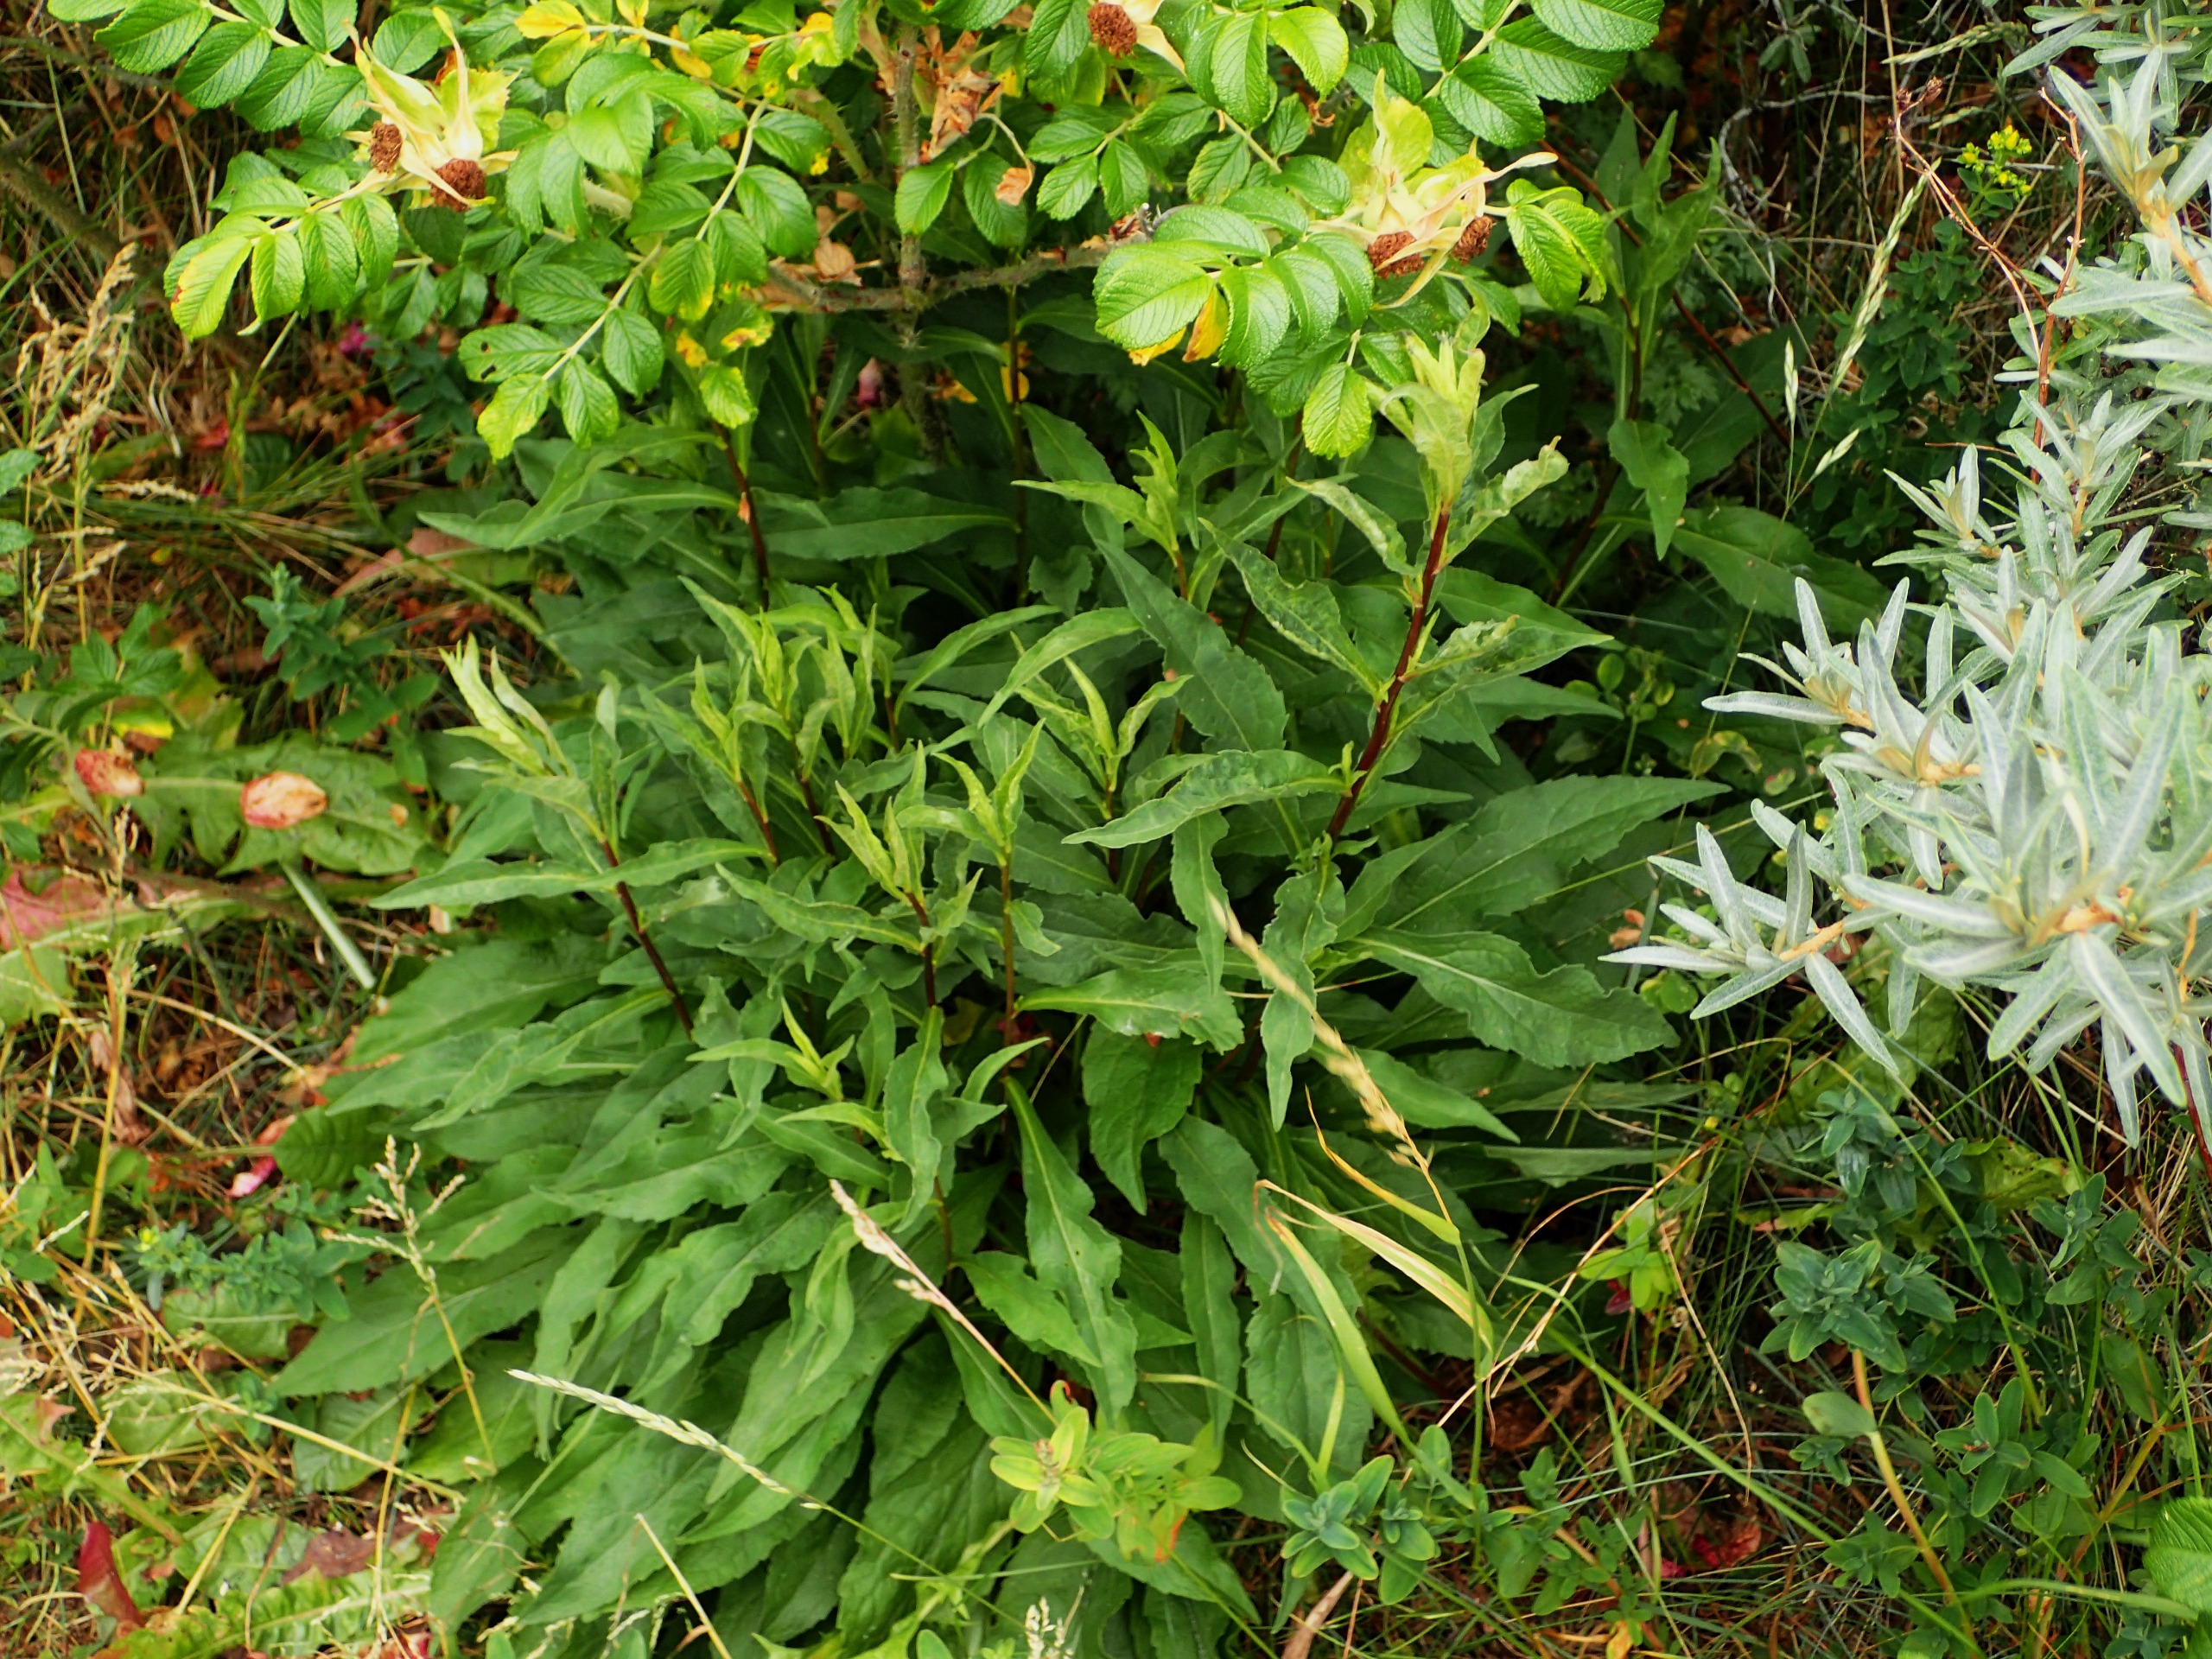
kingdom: Plantae
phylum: Tracheophyta
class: Magnoliopsida
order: Asterales
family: Asteraceae
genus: Solidago
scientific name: Solidago virgaurea
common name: Almindelig gyldenris
